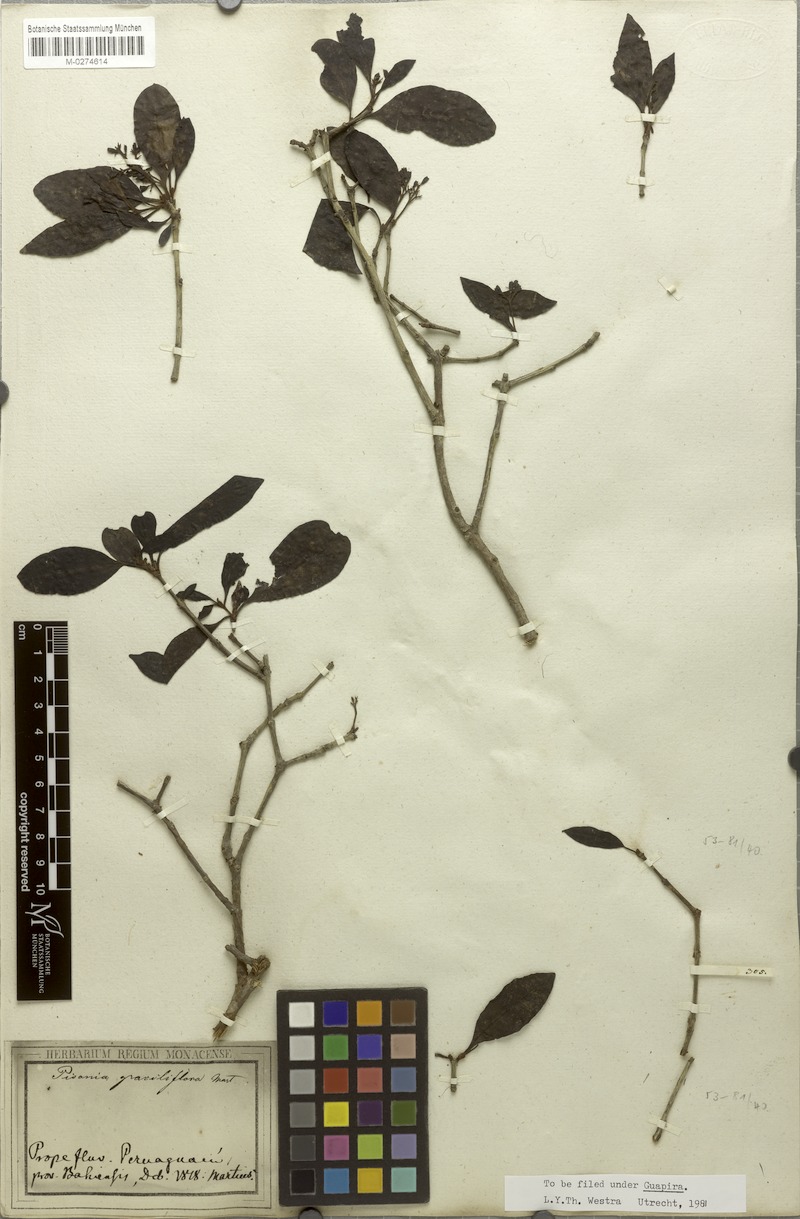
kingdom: Plantae
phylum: Tracheophyta
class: Magnoliopsida
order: Caryophyllales
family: Nyctaginaceae
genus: Guapira
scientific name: Guapira graciliflora
